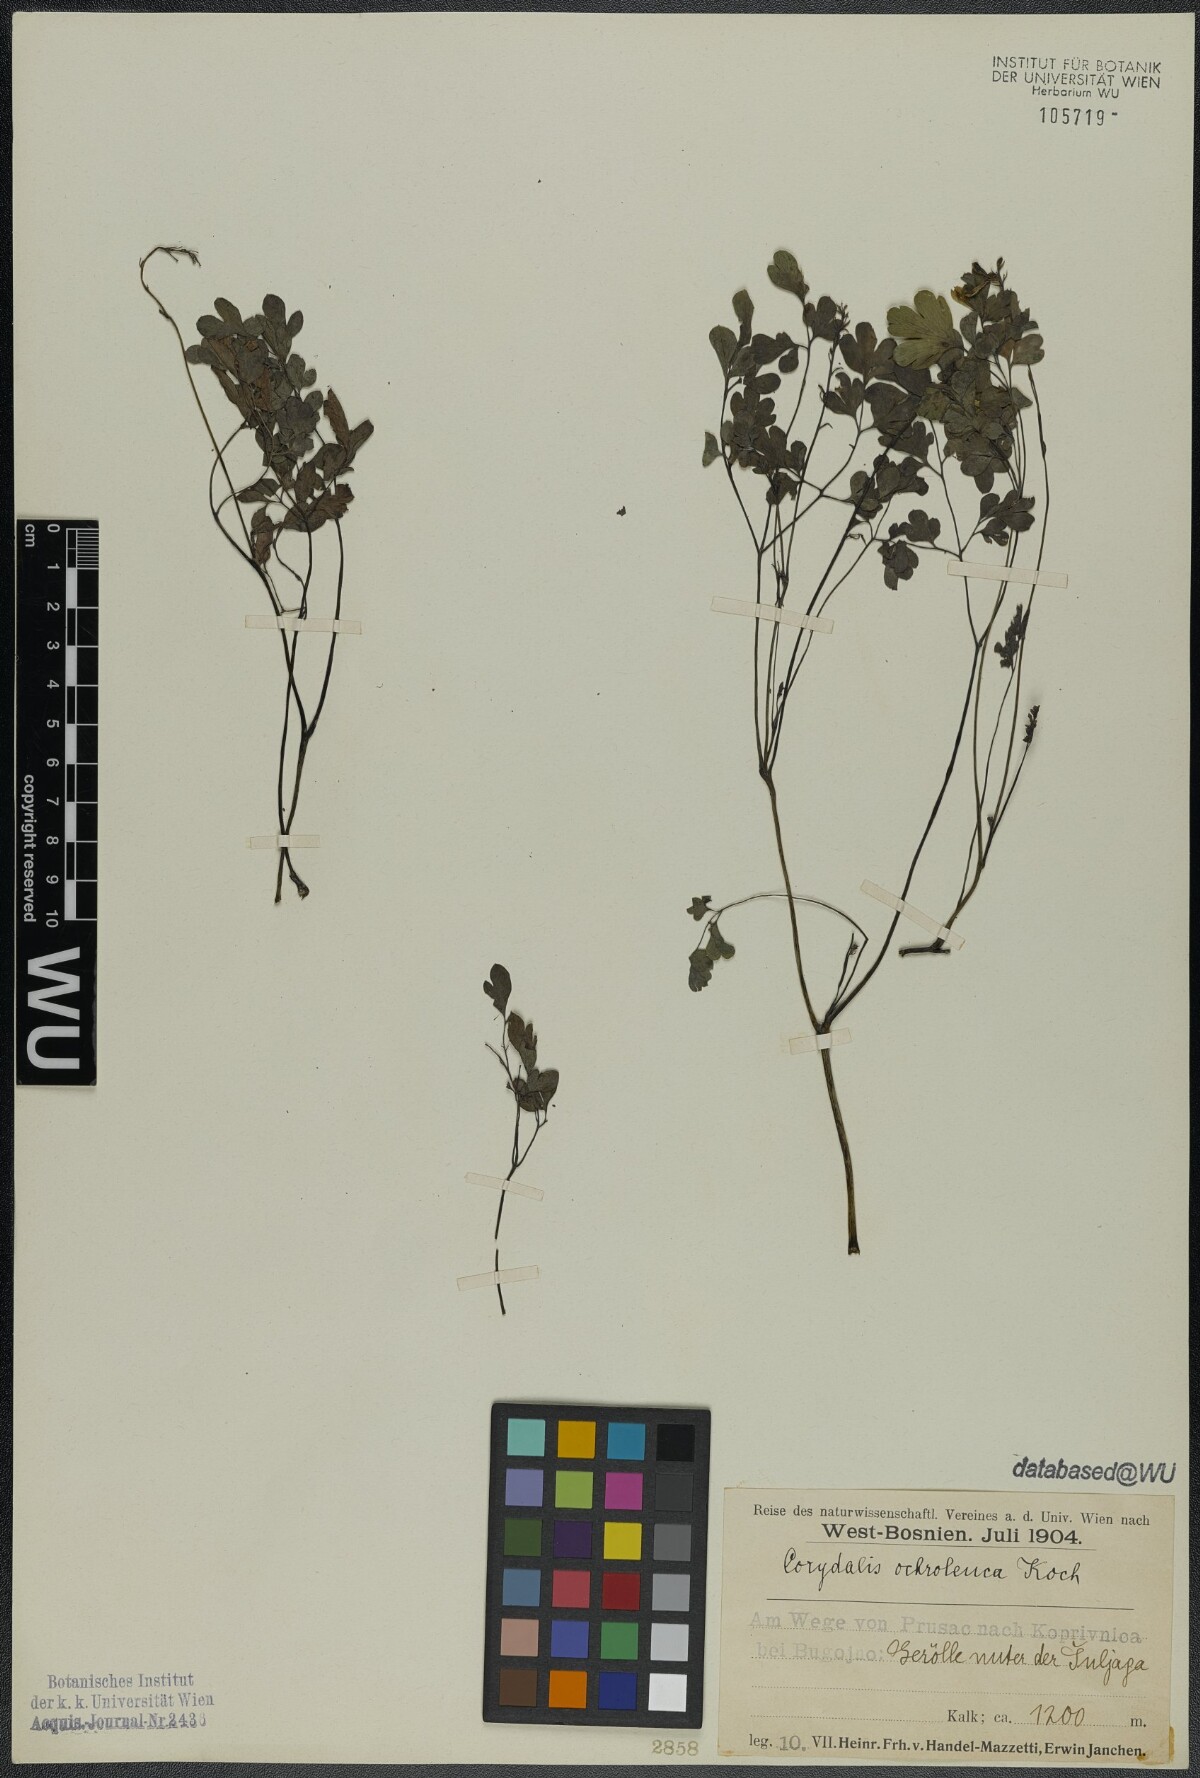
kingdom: Plantae
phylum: Tracheophyta
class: Magnoliopsida
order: Ranunculales
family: Papaveraceae
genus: Pseudofumaria
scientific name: Pseudofumaria alba
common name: Pale corydalis
